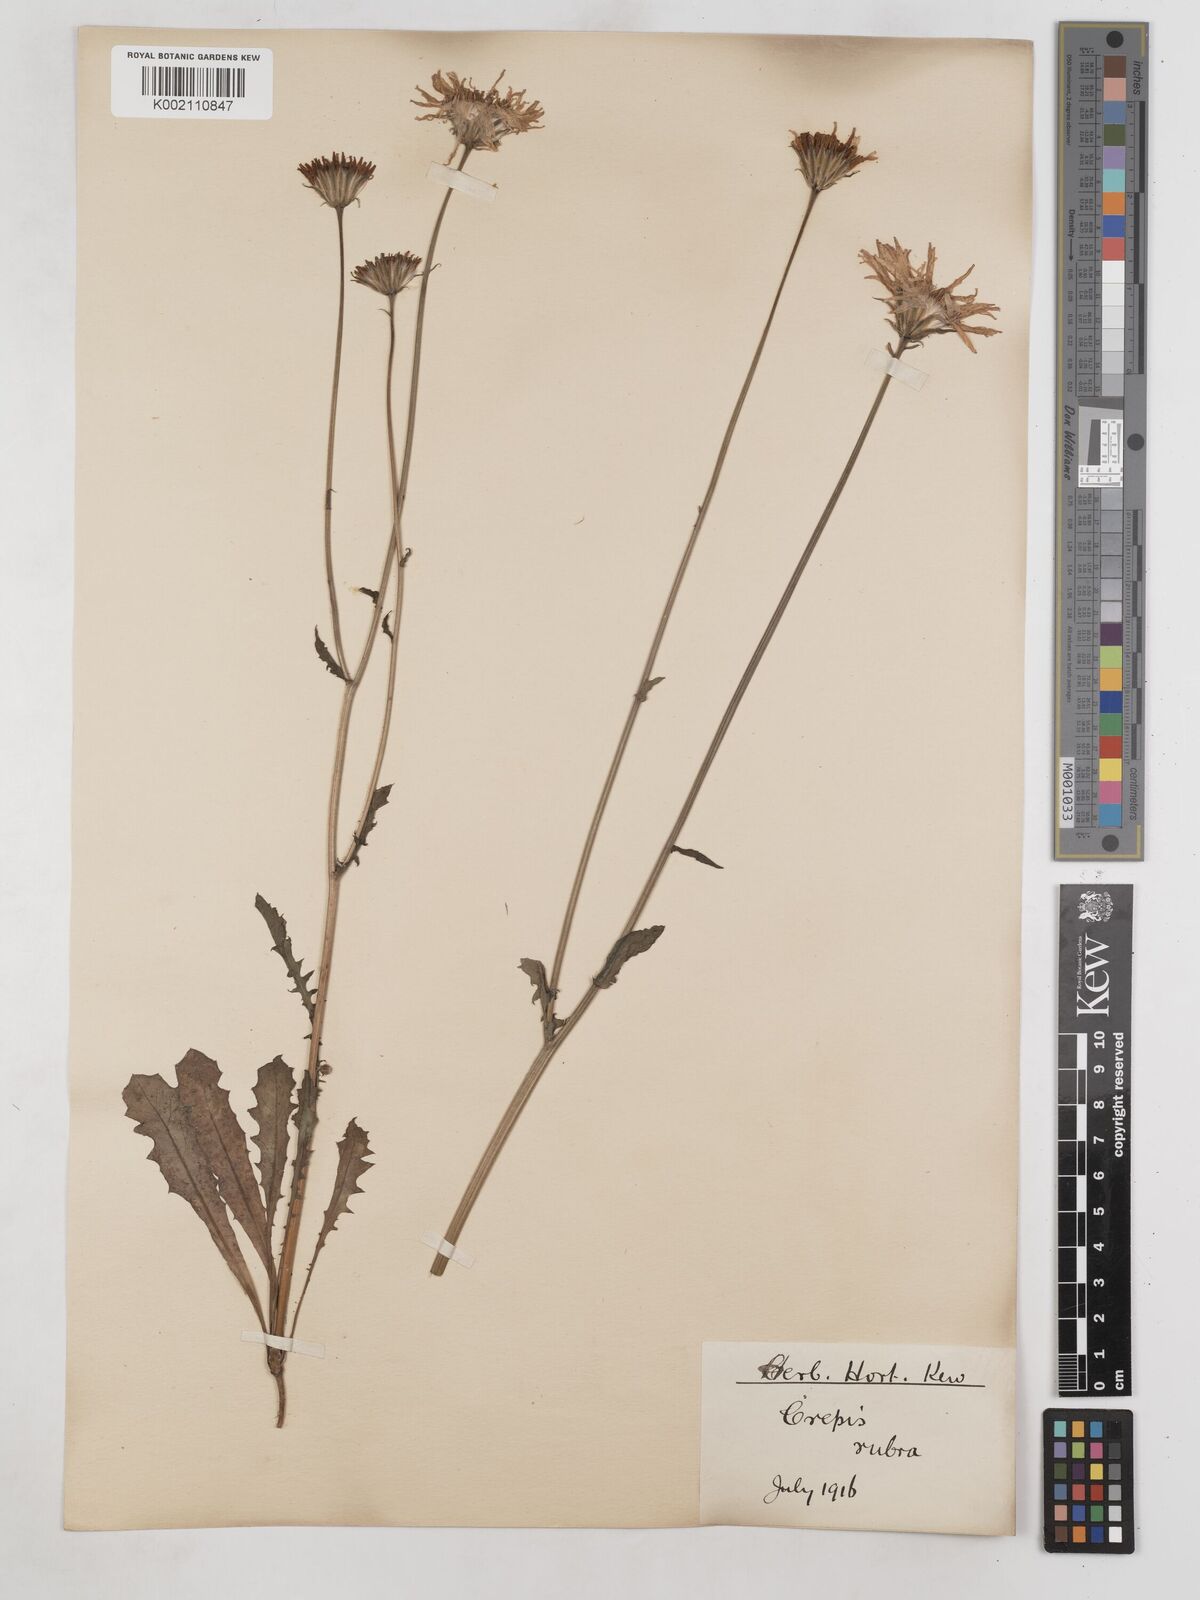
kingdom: Plantae
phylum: Tracheophyta
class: Magnoliopsida
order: Asterales
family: Asteraceae
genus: Crepis
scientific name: Crepis rubra
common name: Pink hawk's-beard
